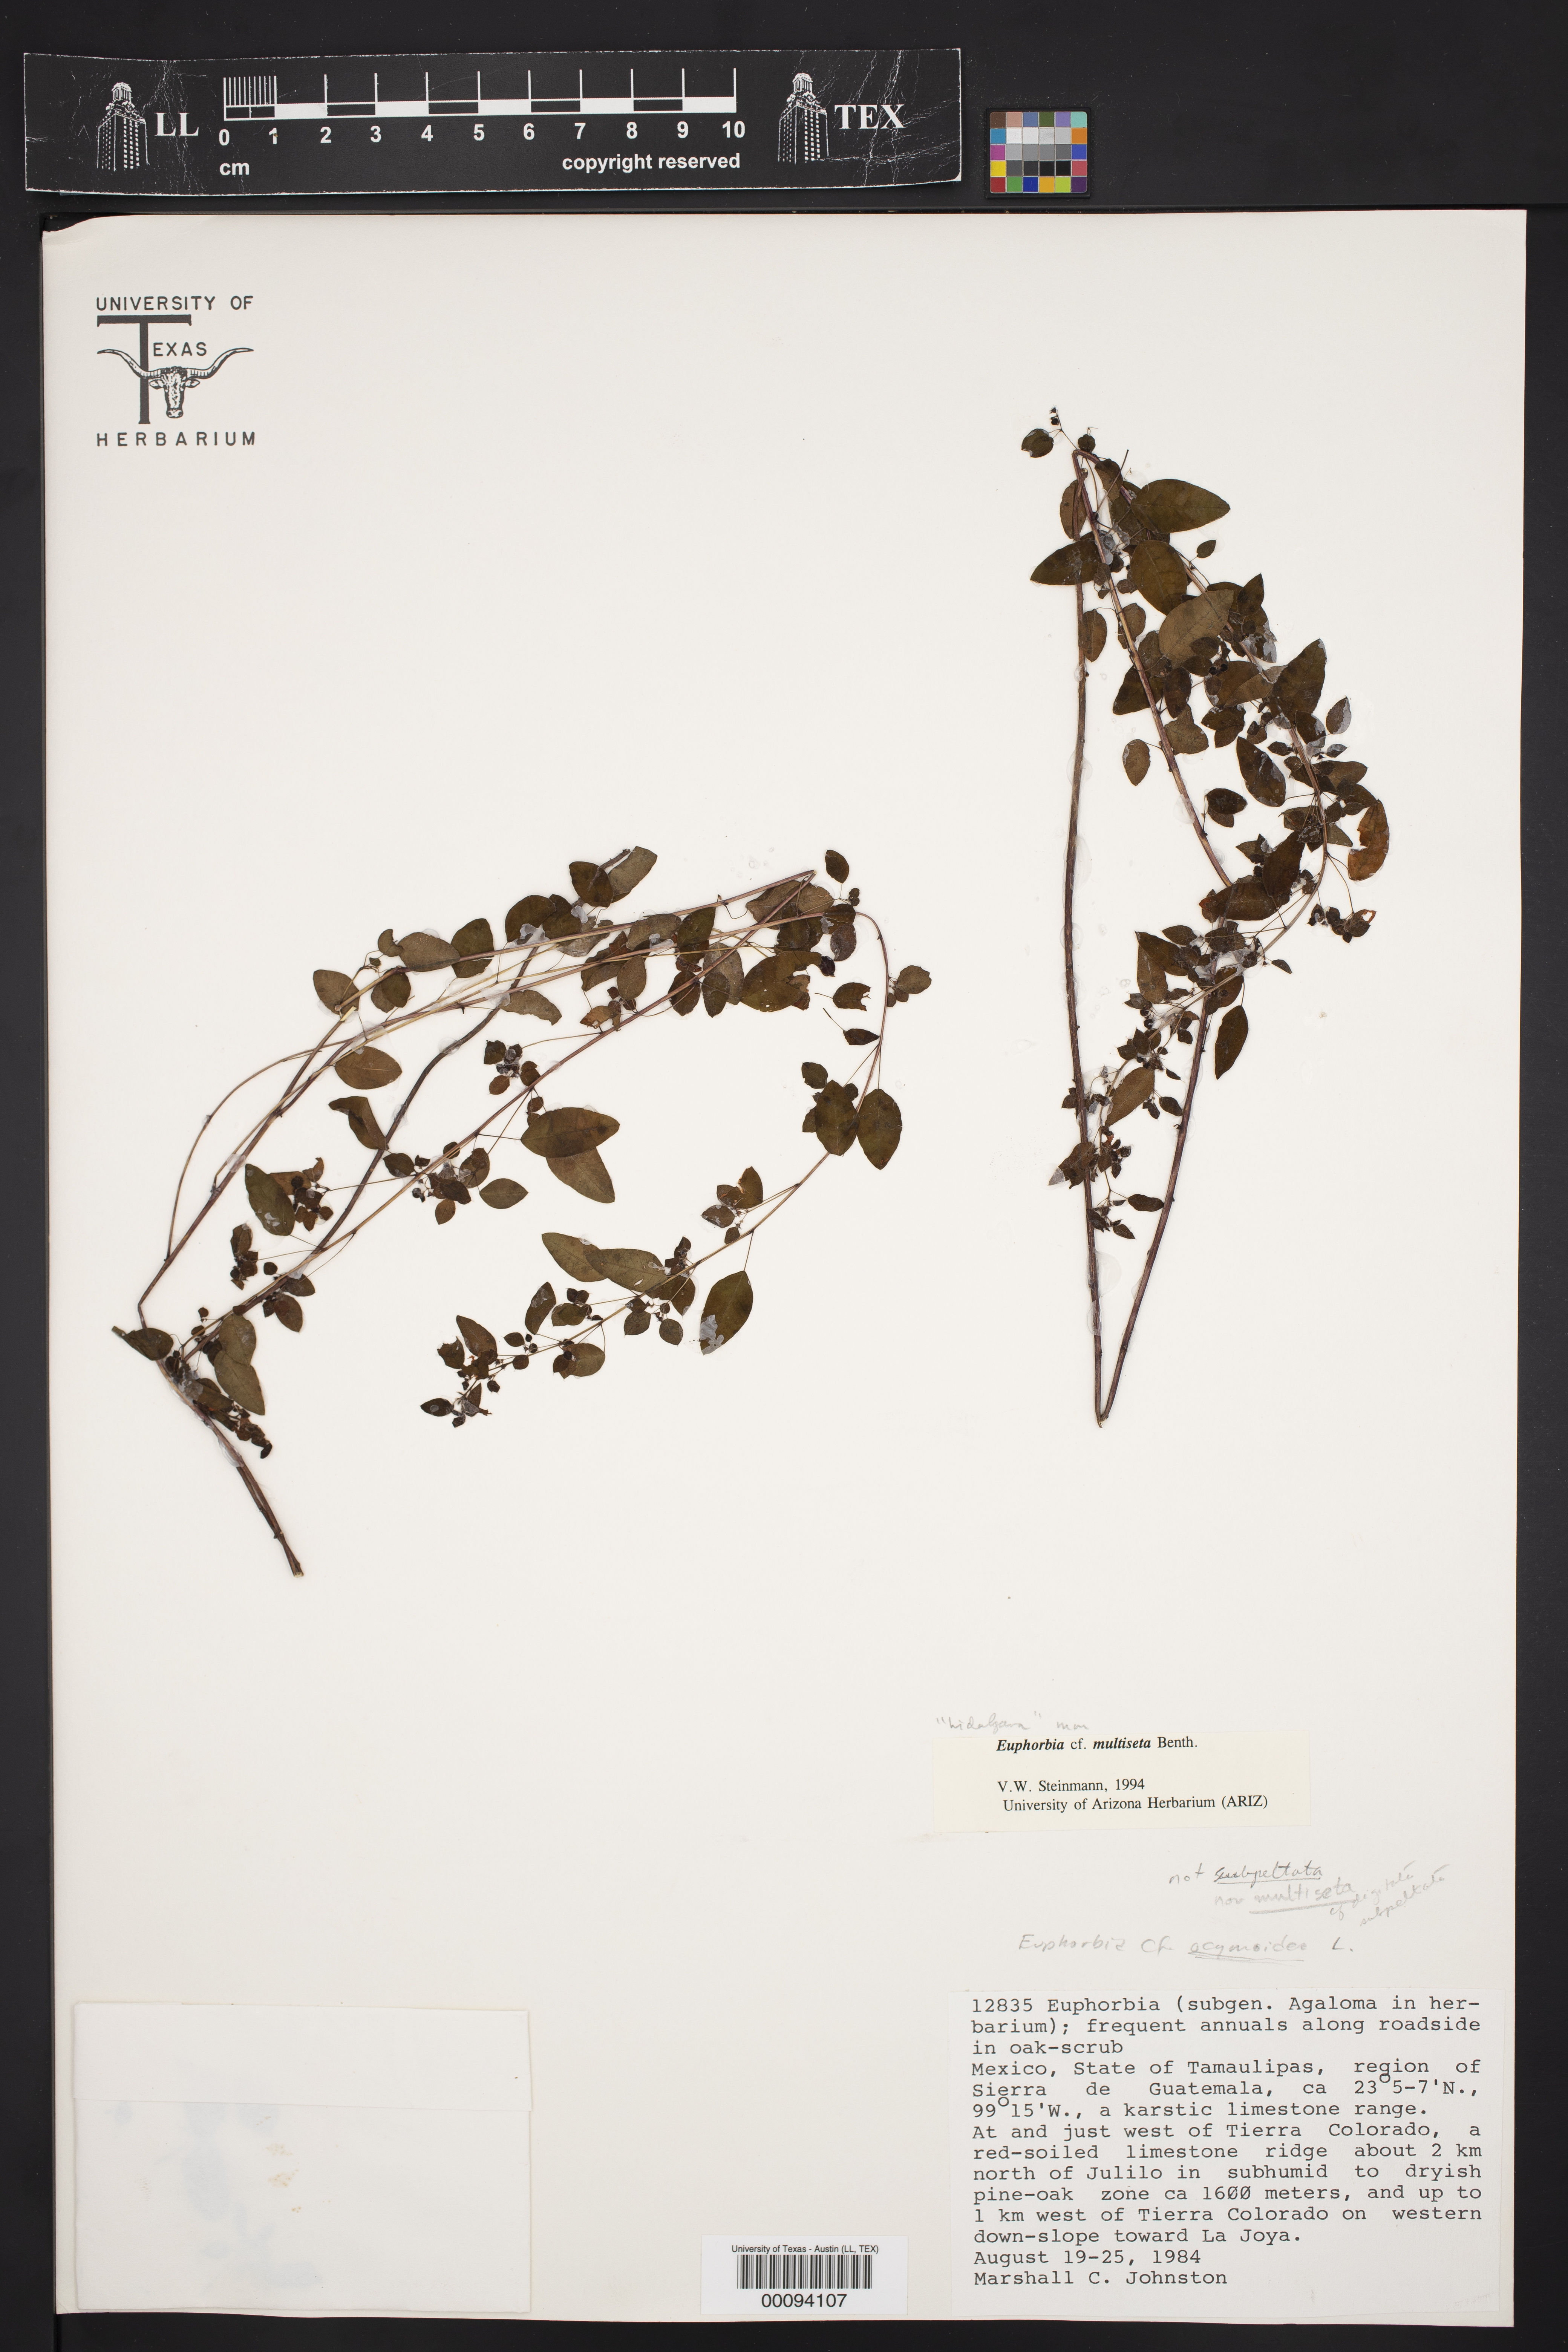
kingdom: Plantae
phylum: Tracheophyta
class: Magnoliopsida
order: Malpighiales
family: Euphorbiaceae
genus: Euphorbia
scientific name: Euphorbia
